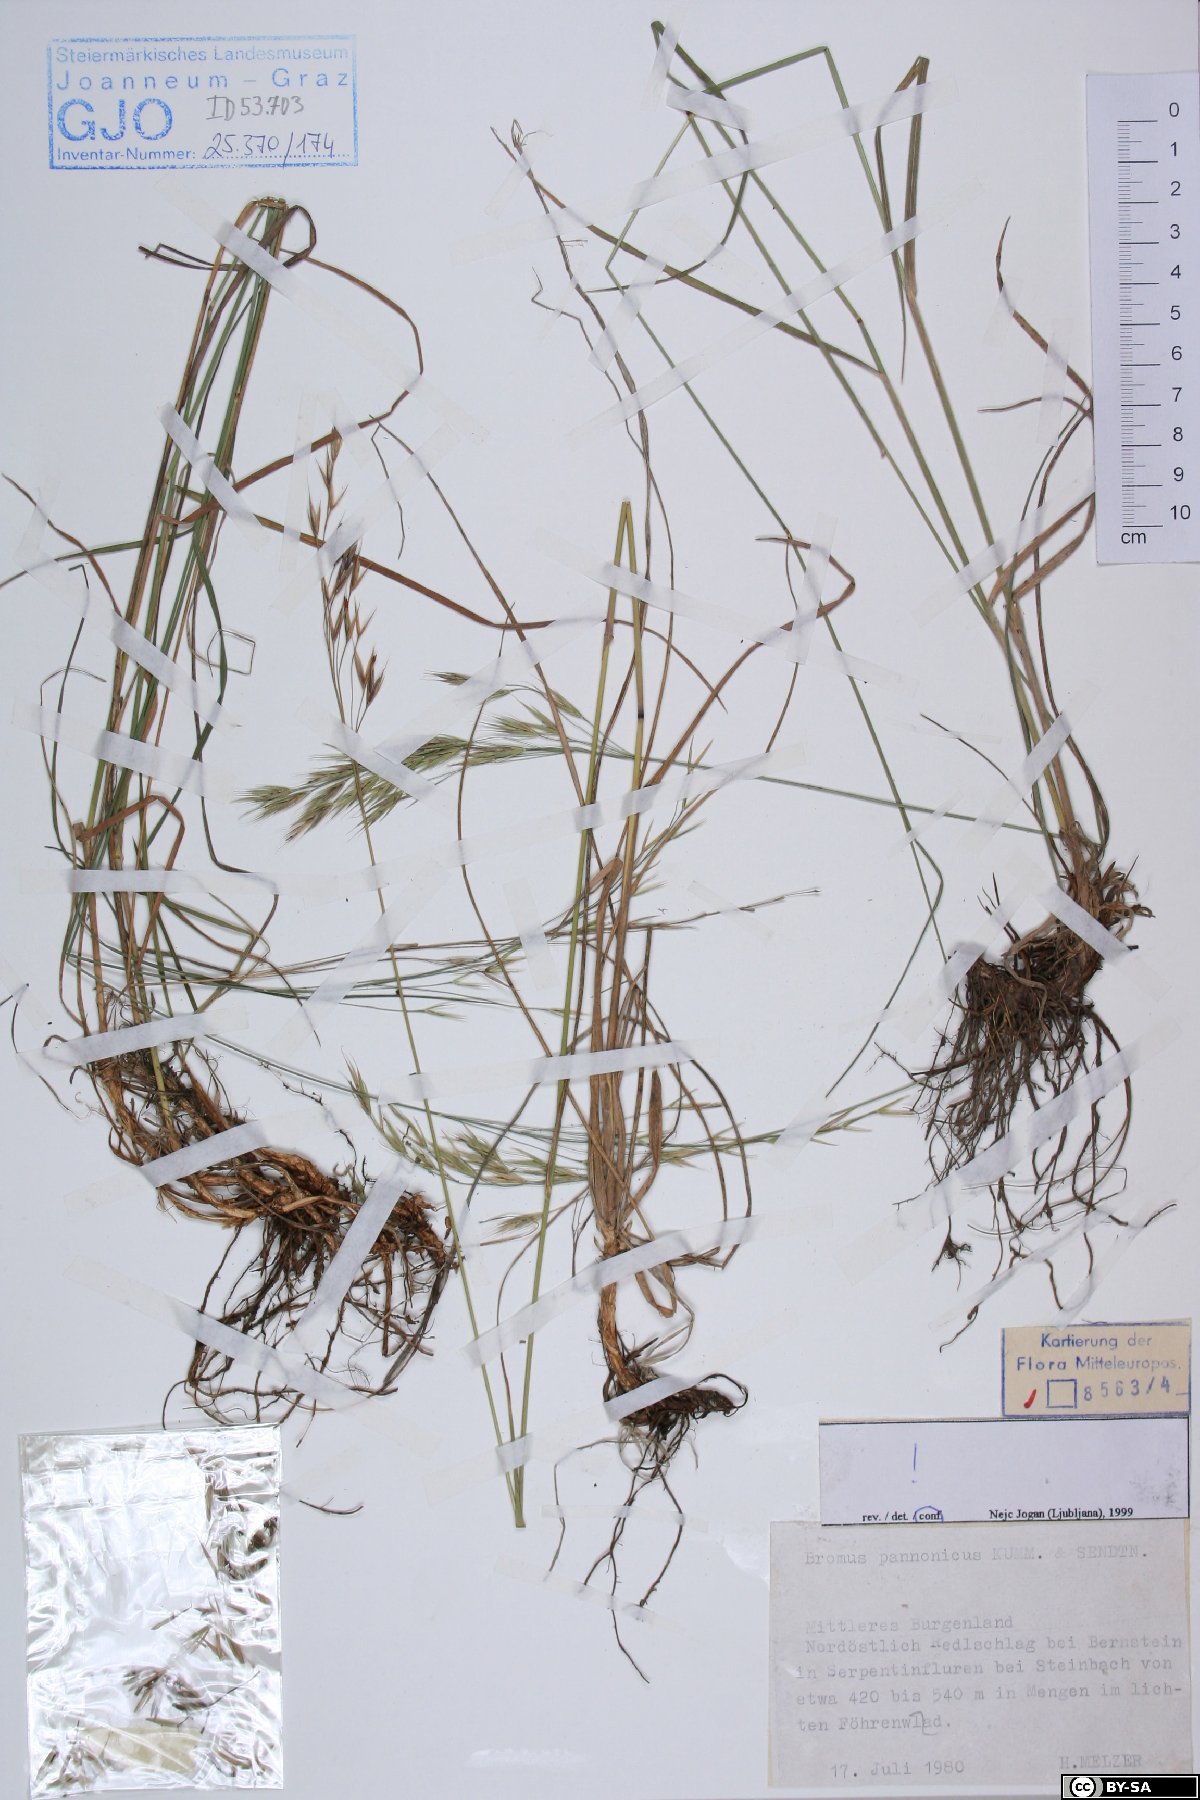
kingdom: Plantae
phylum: Tracheophyta
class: Liliopsida
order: Poales
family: Poaceae
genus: Bromus
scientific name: Bromus pannonicus
